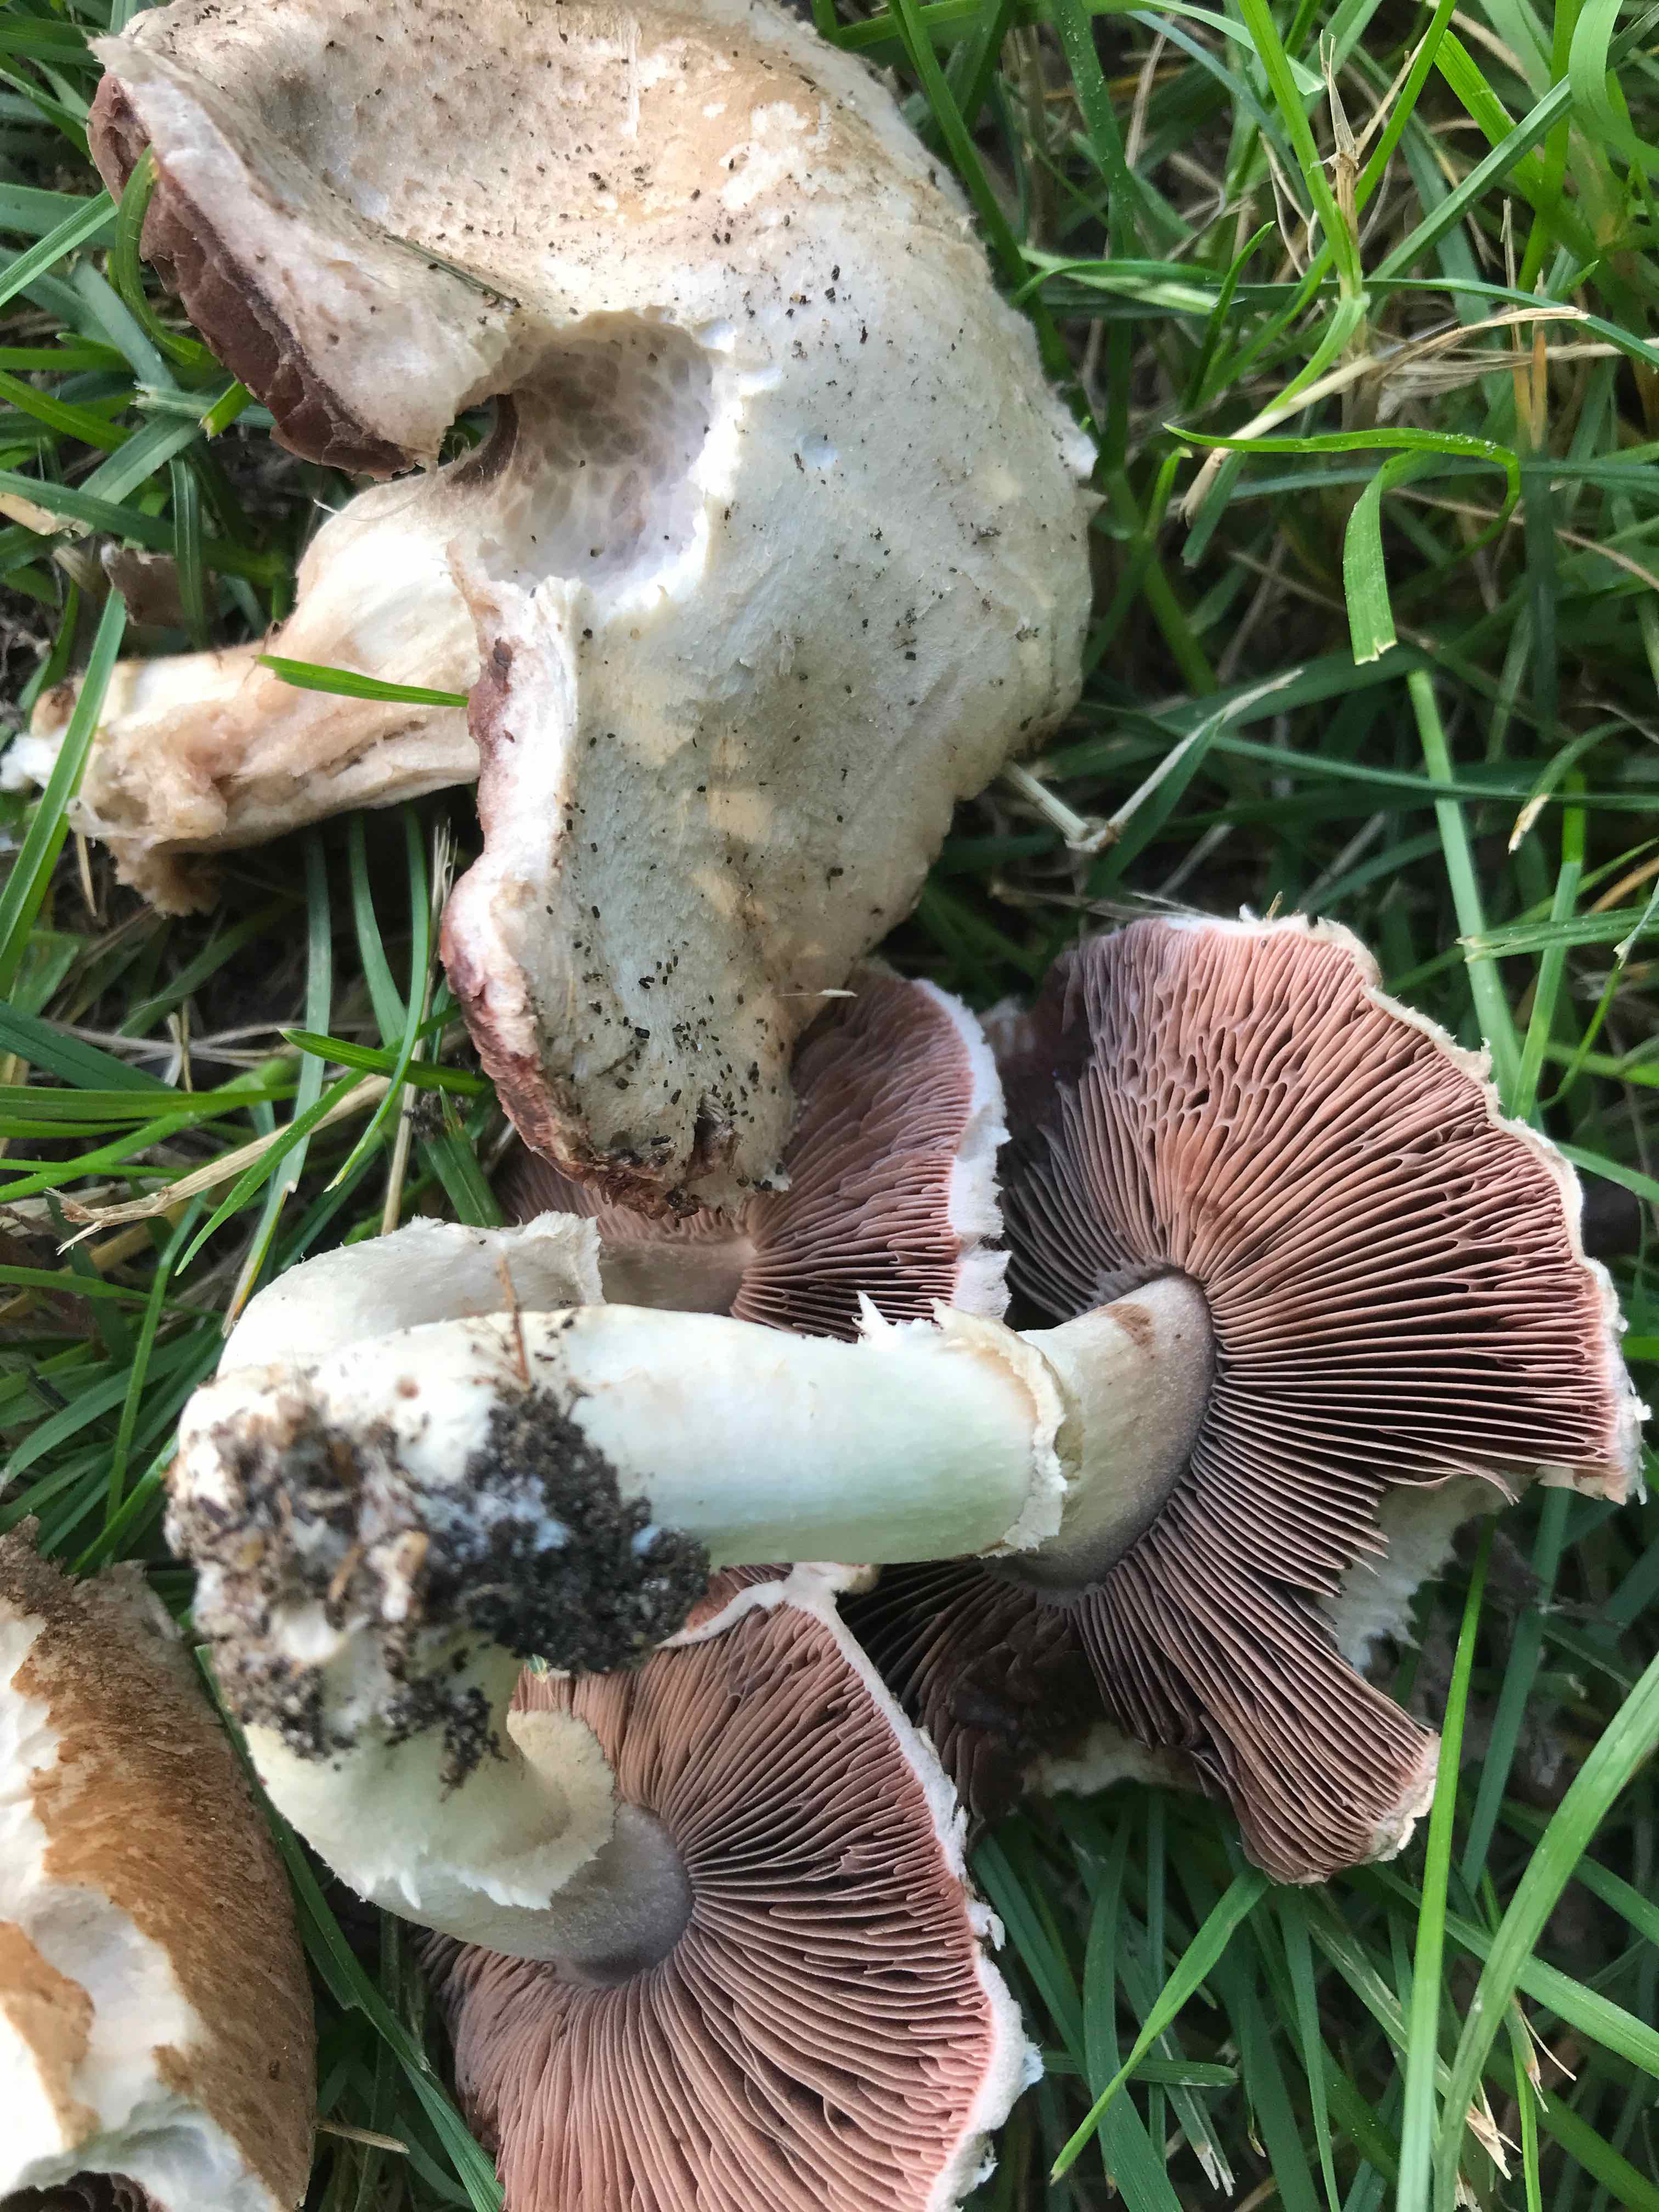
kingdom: Fungi
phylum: Basidiomycota
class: Agaricomycetes
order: Agaricales
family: Agaricaceae
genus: Agaricus
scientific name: Agaricus campestris
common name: mark-champignon
